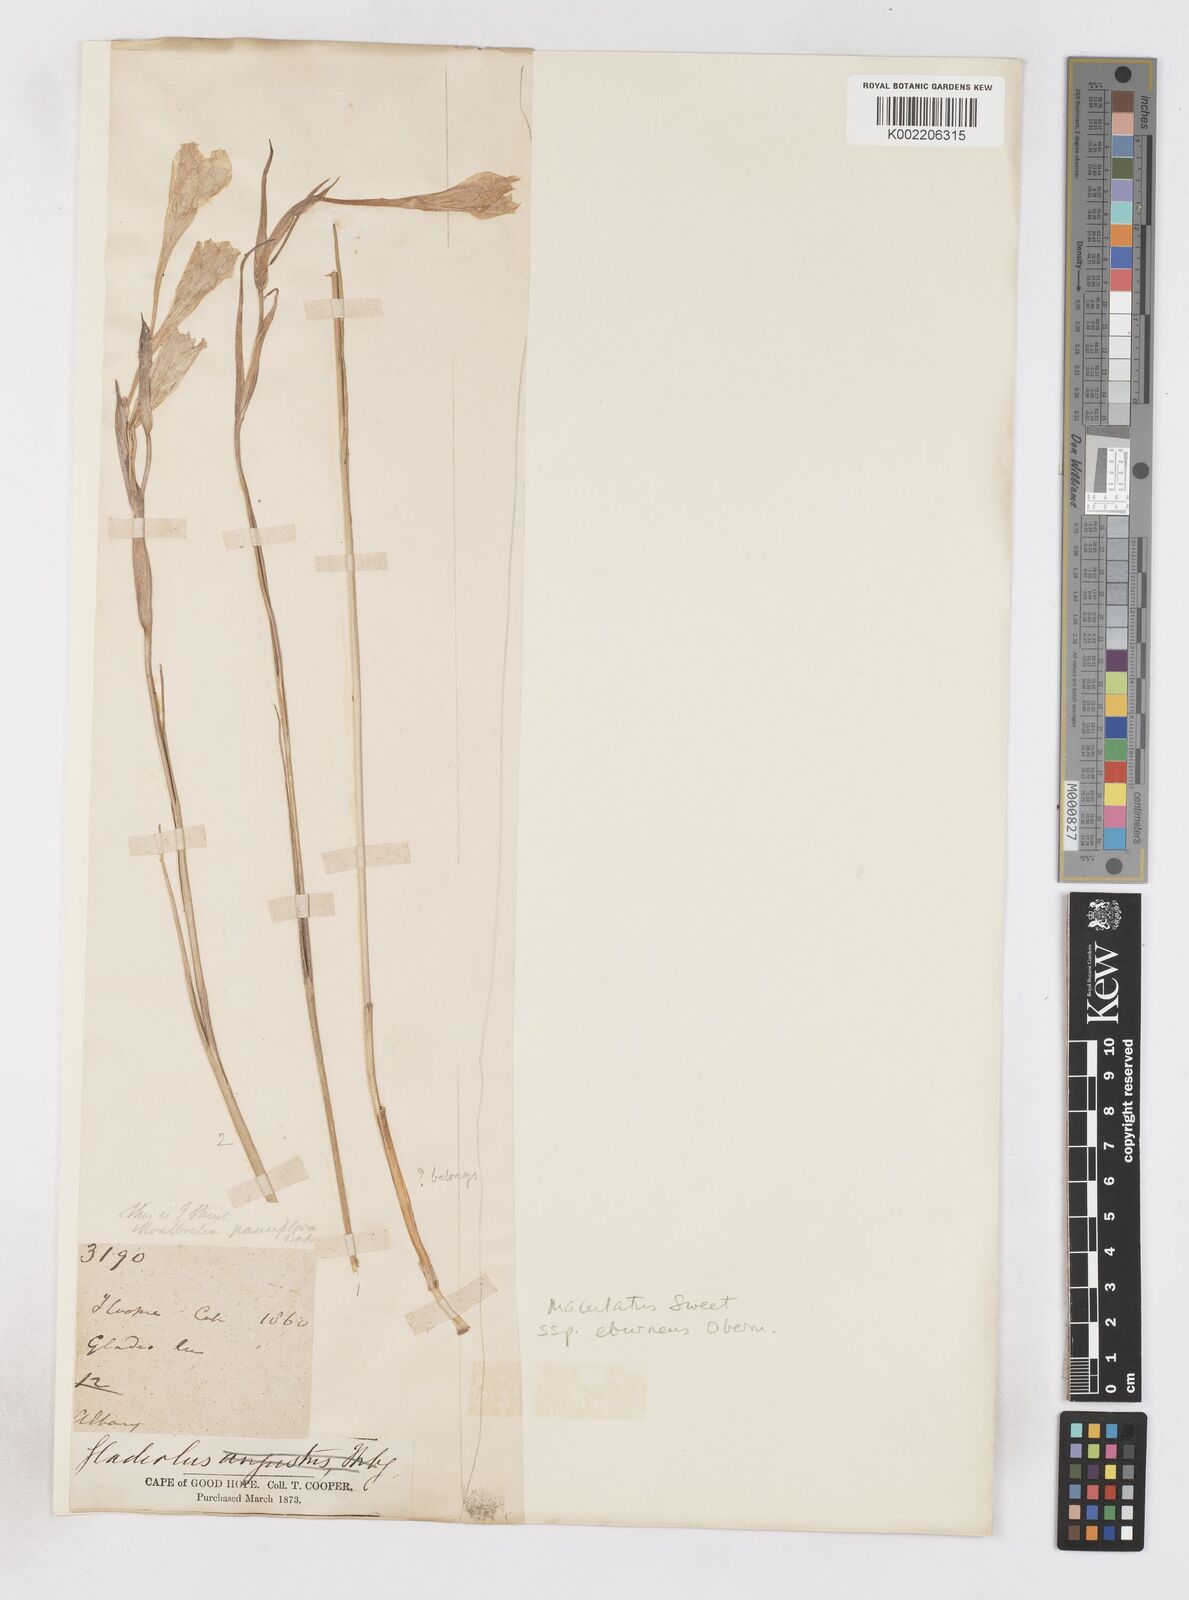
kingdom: Plantae
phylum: Tracheophyta
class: Liliopsida
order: Asparagales
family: Iridaceae
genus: Gladiolus
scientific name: Gladiolus albens
